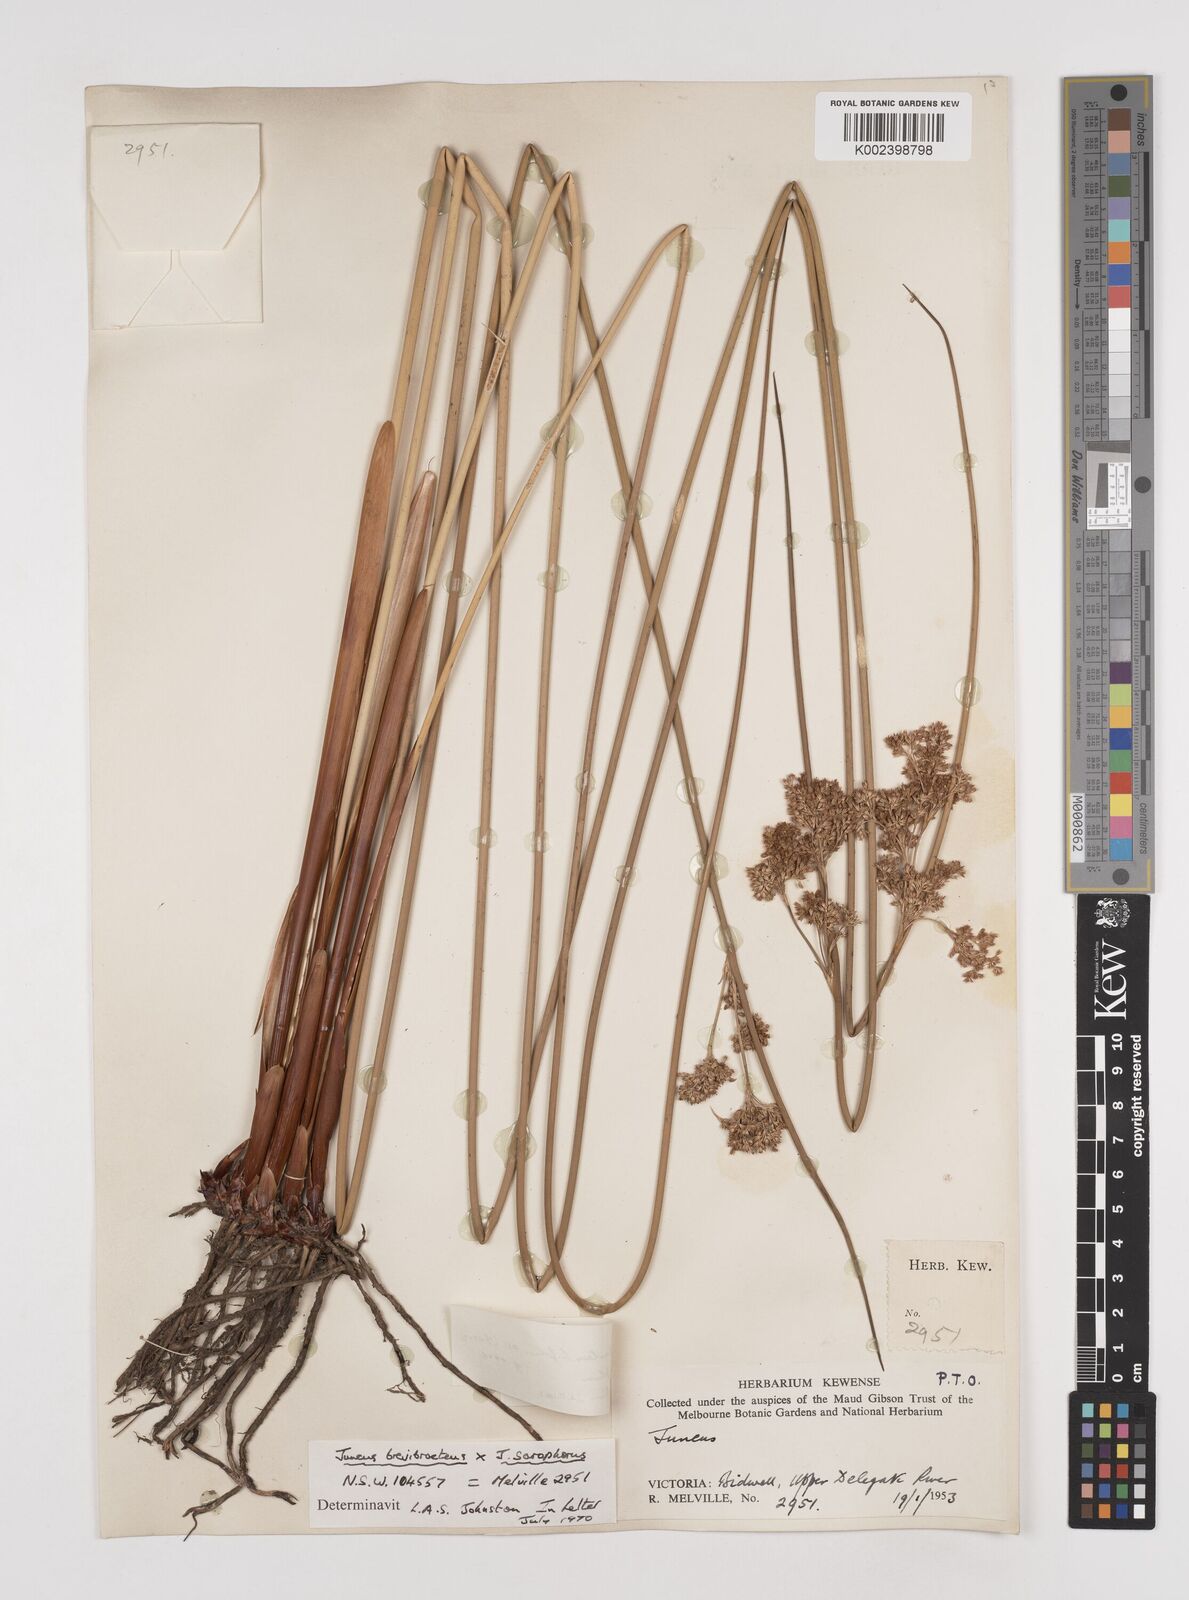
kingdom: Plantae
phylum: Tracheophyta
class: Liliopsida
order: Poales
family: Juncaceae
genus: Juncus
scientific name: Juncus brevibracteus
